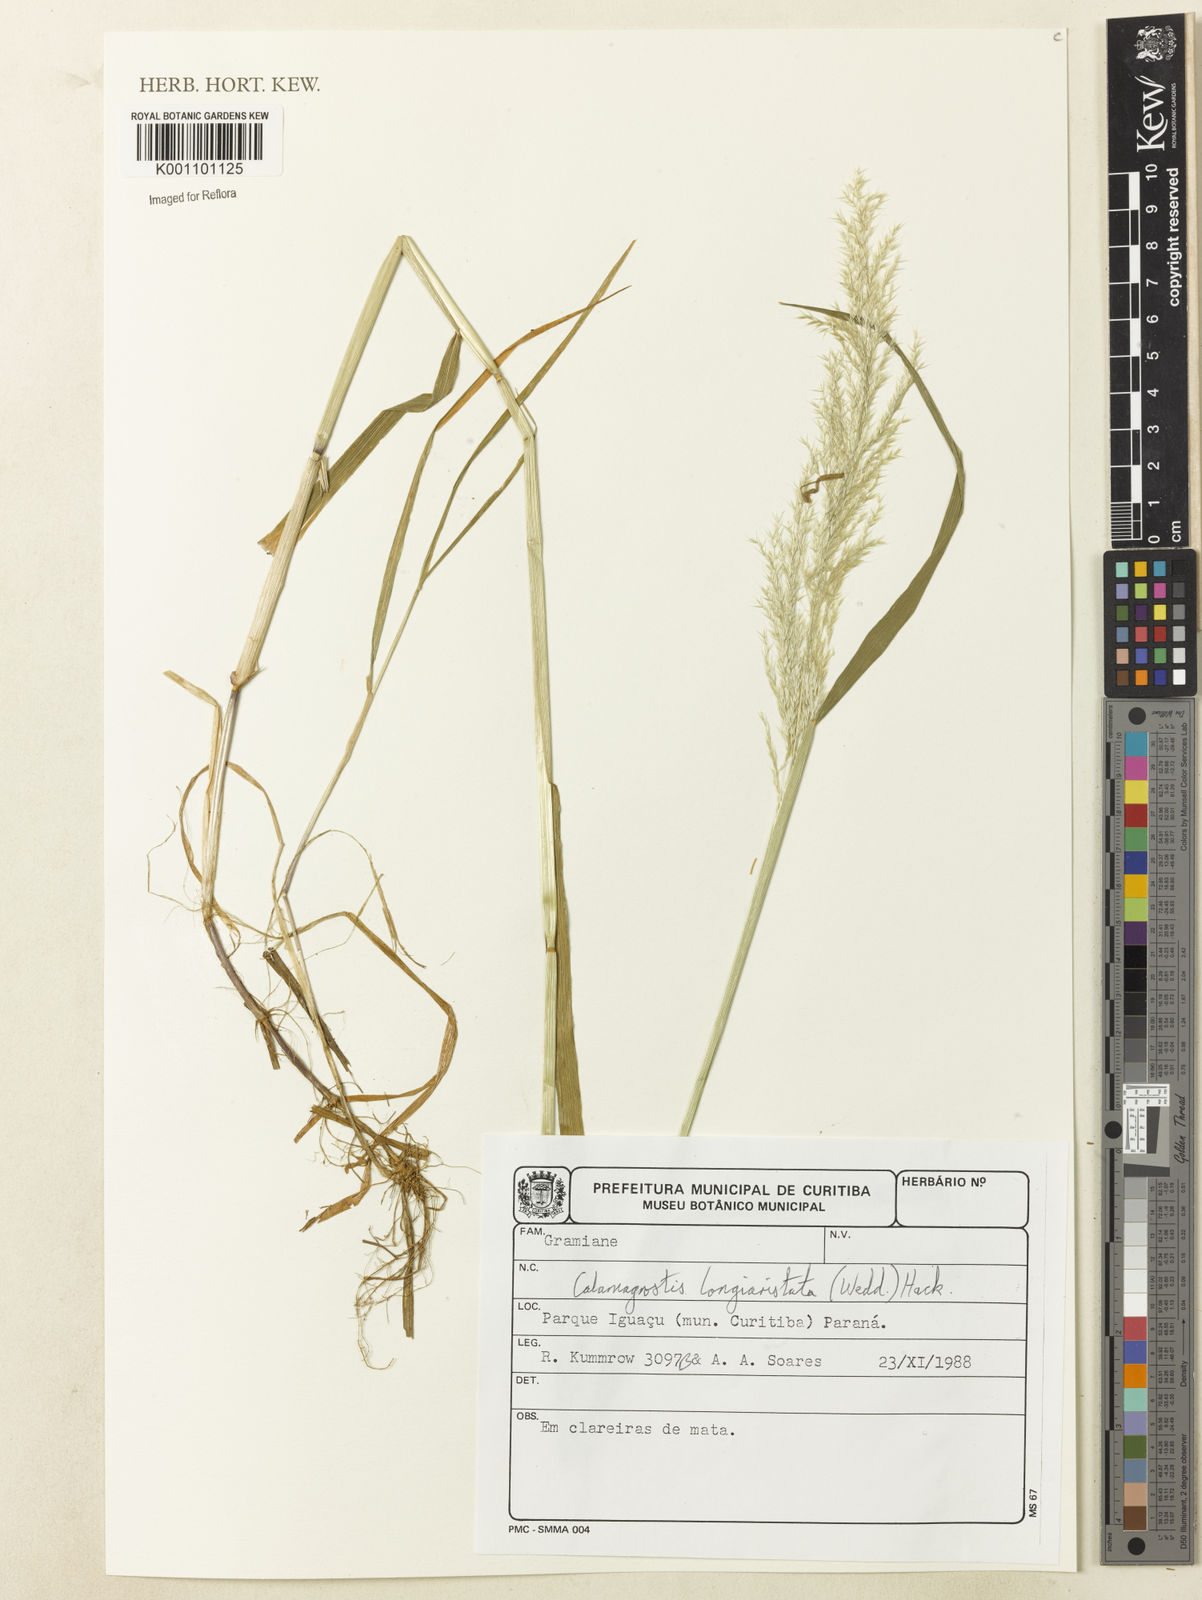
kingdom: Plantae
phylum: Tracheophyta
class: Liliopsida
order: Poales
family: Poaceae
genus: Cinnagrostis
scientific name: Cinnagrostis rupestris
